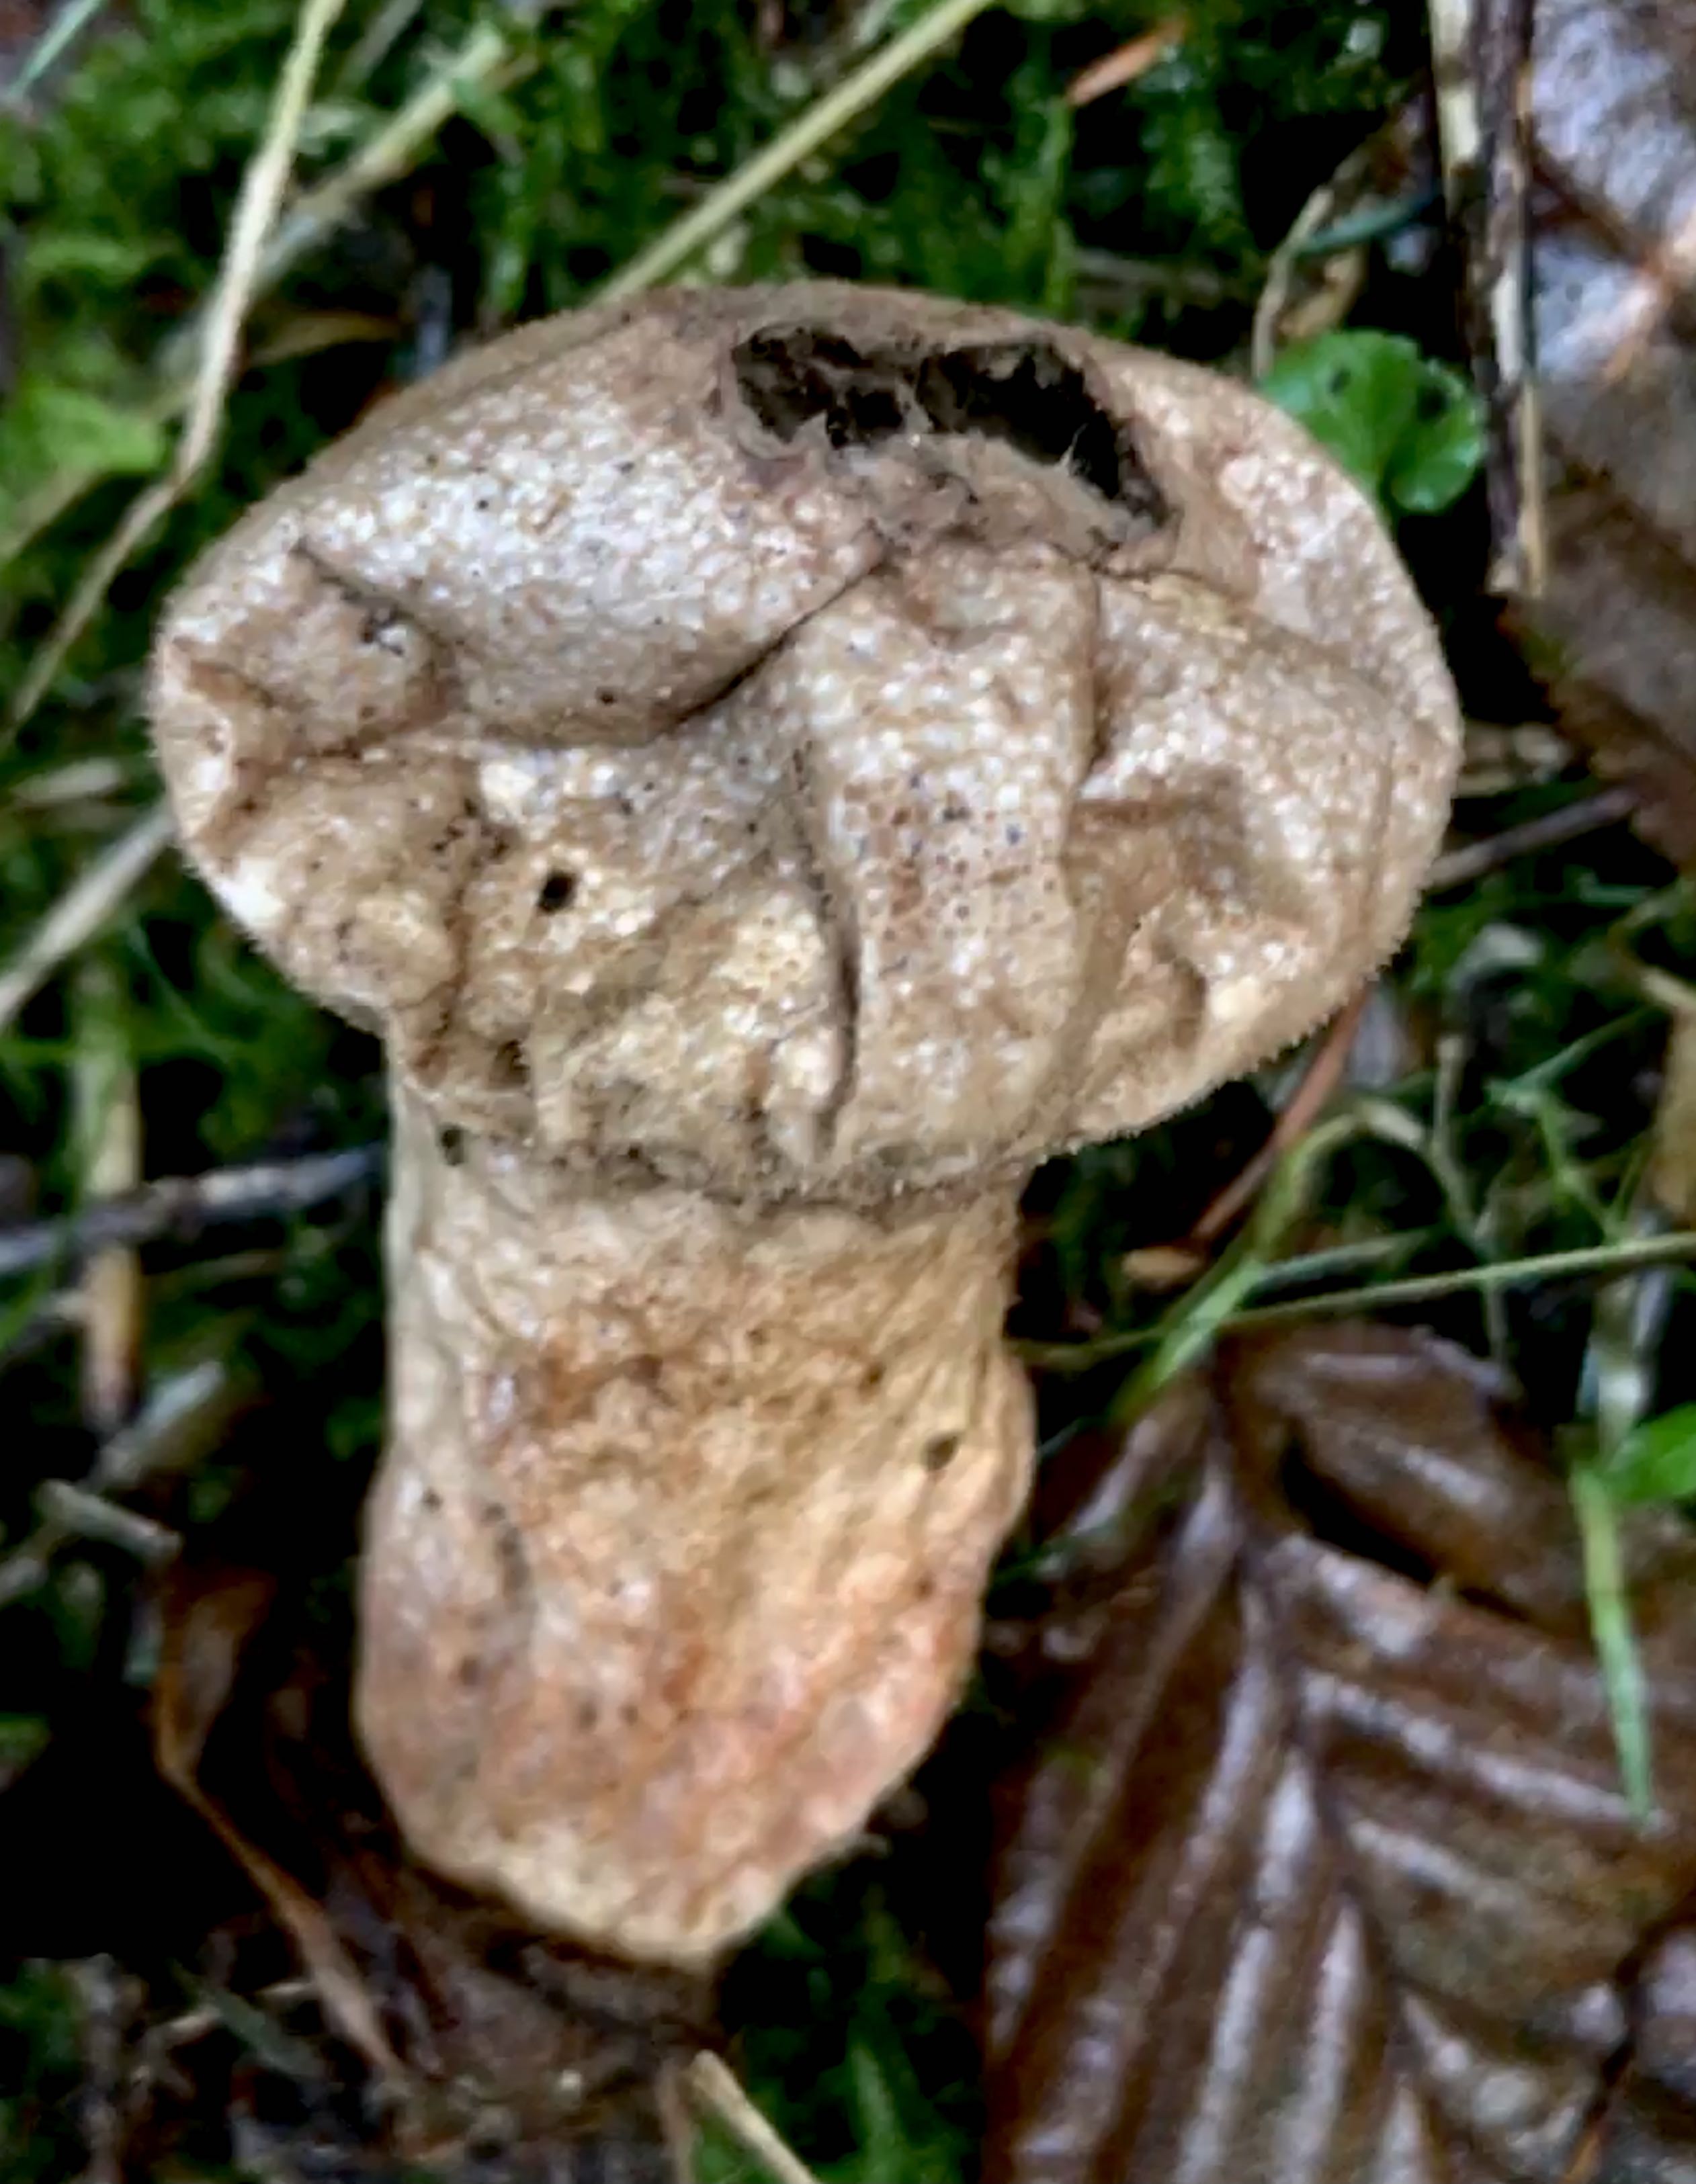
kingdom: Fungi
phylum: Basidiomycota
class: Agaricomycetes
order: Agaricales
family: Lycoperdaceae
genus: Lycoperdon
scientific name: Lycoperdon perlatum
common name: krystal-støvbold
